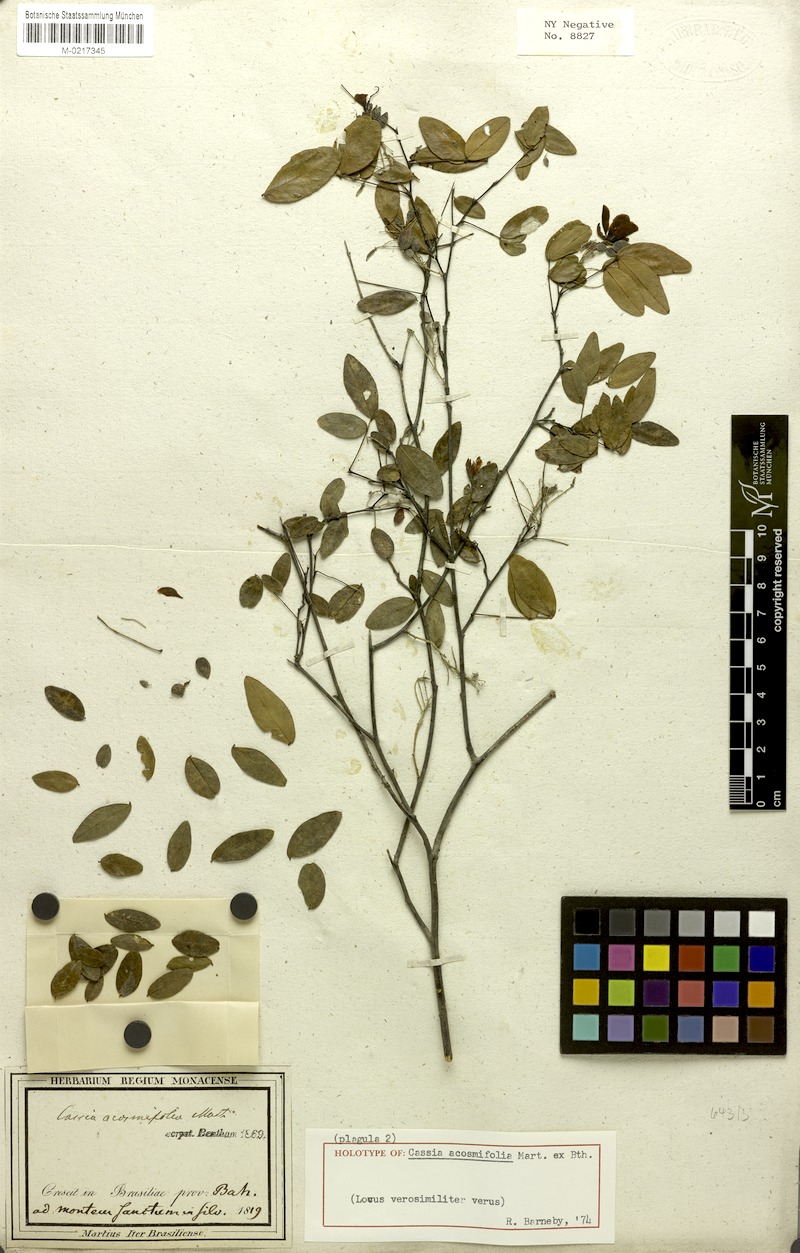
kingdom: Plantae
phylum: Tracheophyta
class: Magnoliopsida
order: Fabales
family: Fabaceae
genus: Chamaecrista
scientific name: Chamaecrista acosmifolia
